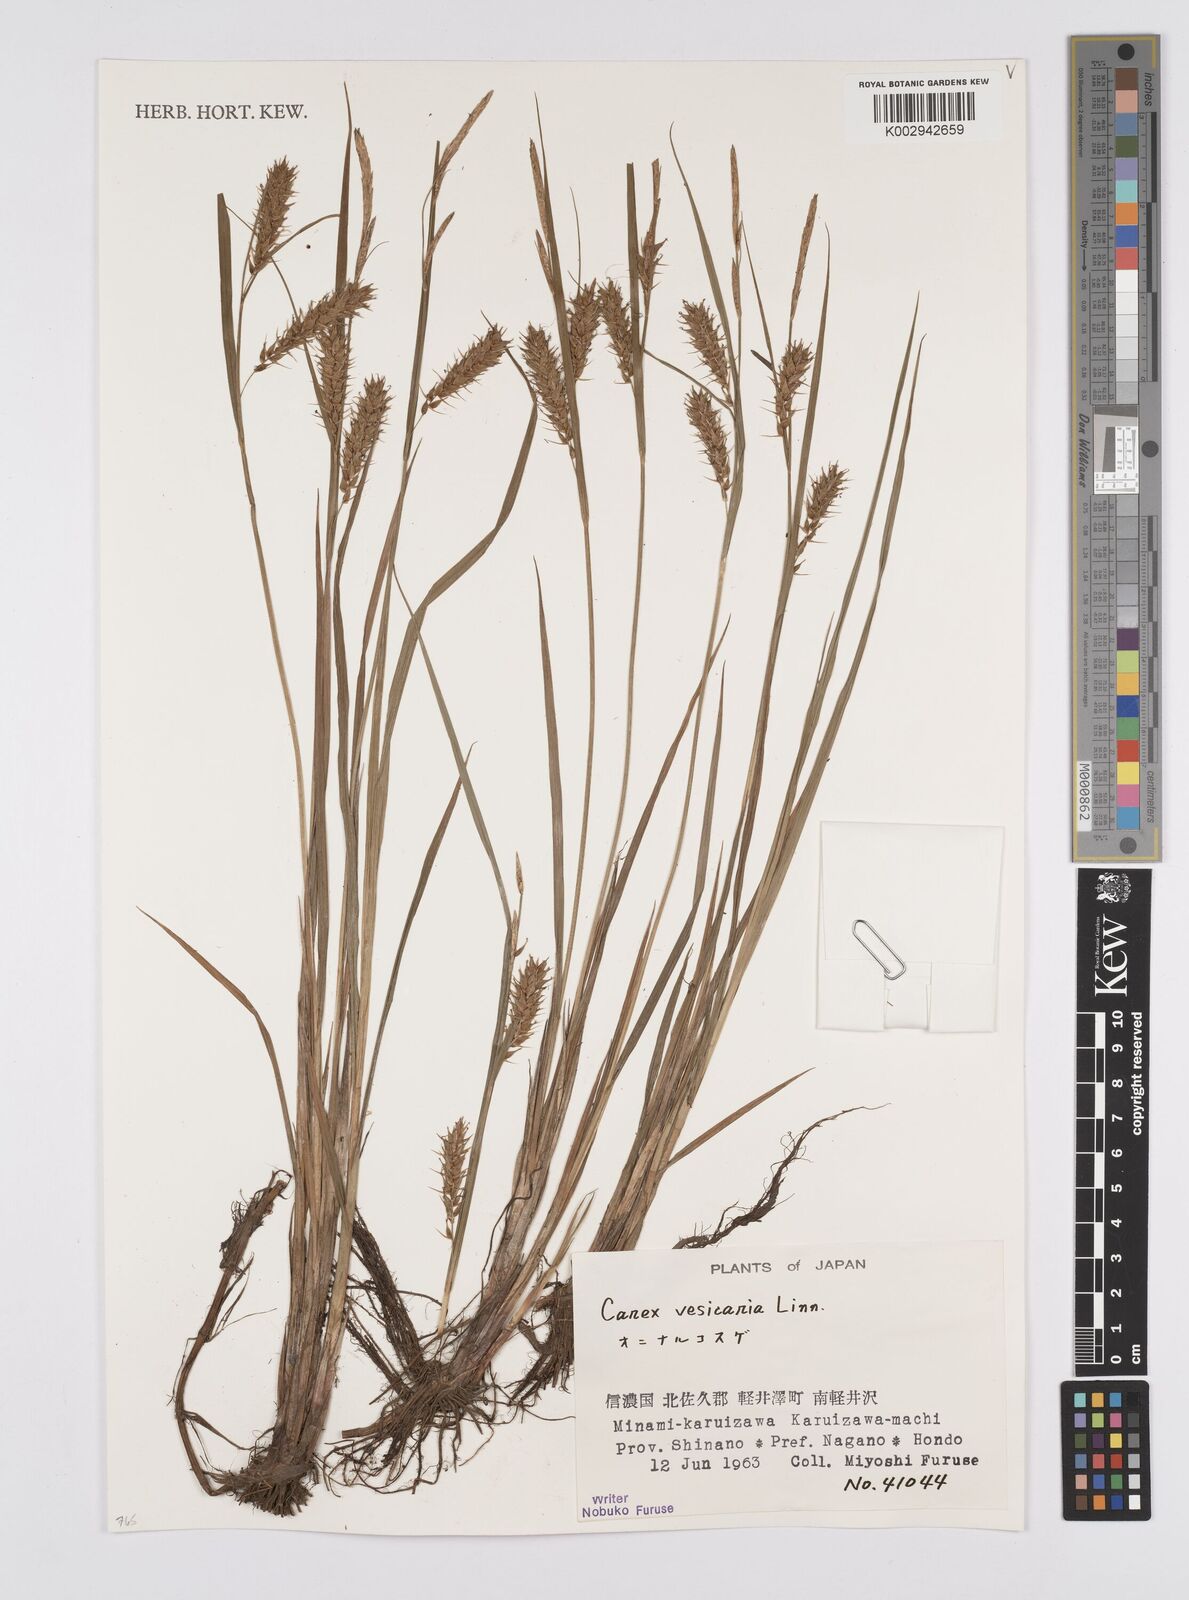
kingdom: Plantae
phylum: Tracheophyta
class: Liliopsida
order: Poales
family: Cyperaceae
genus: Carex
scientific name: Carex vesicaria
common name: Bladder-sedge
